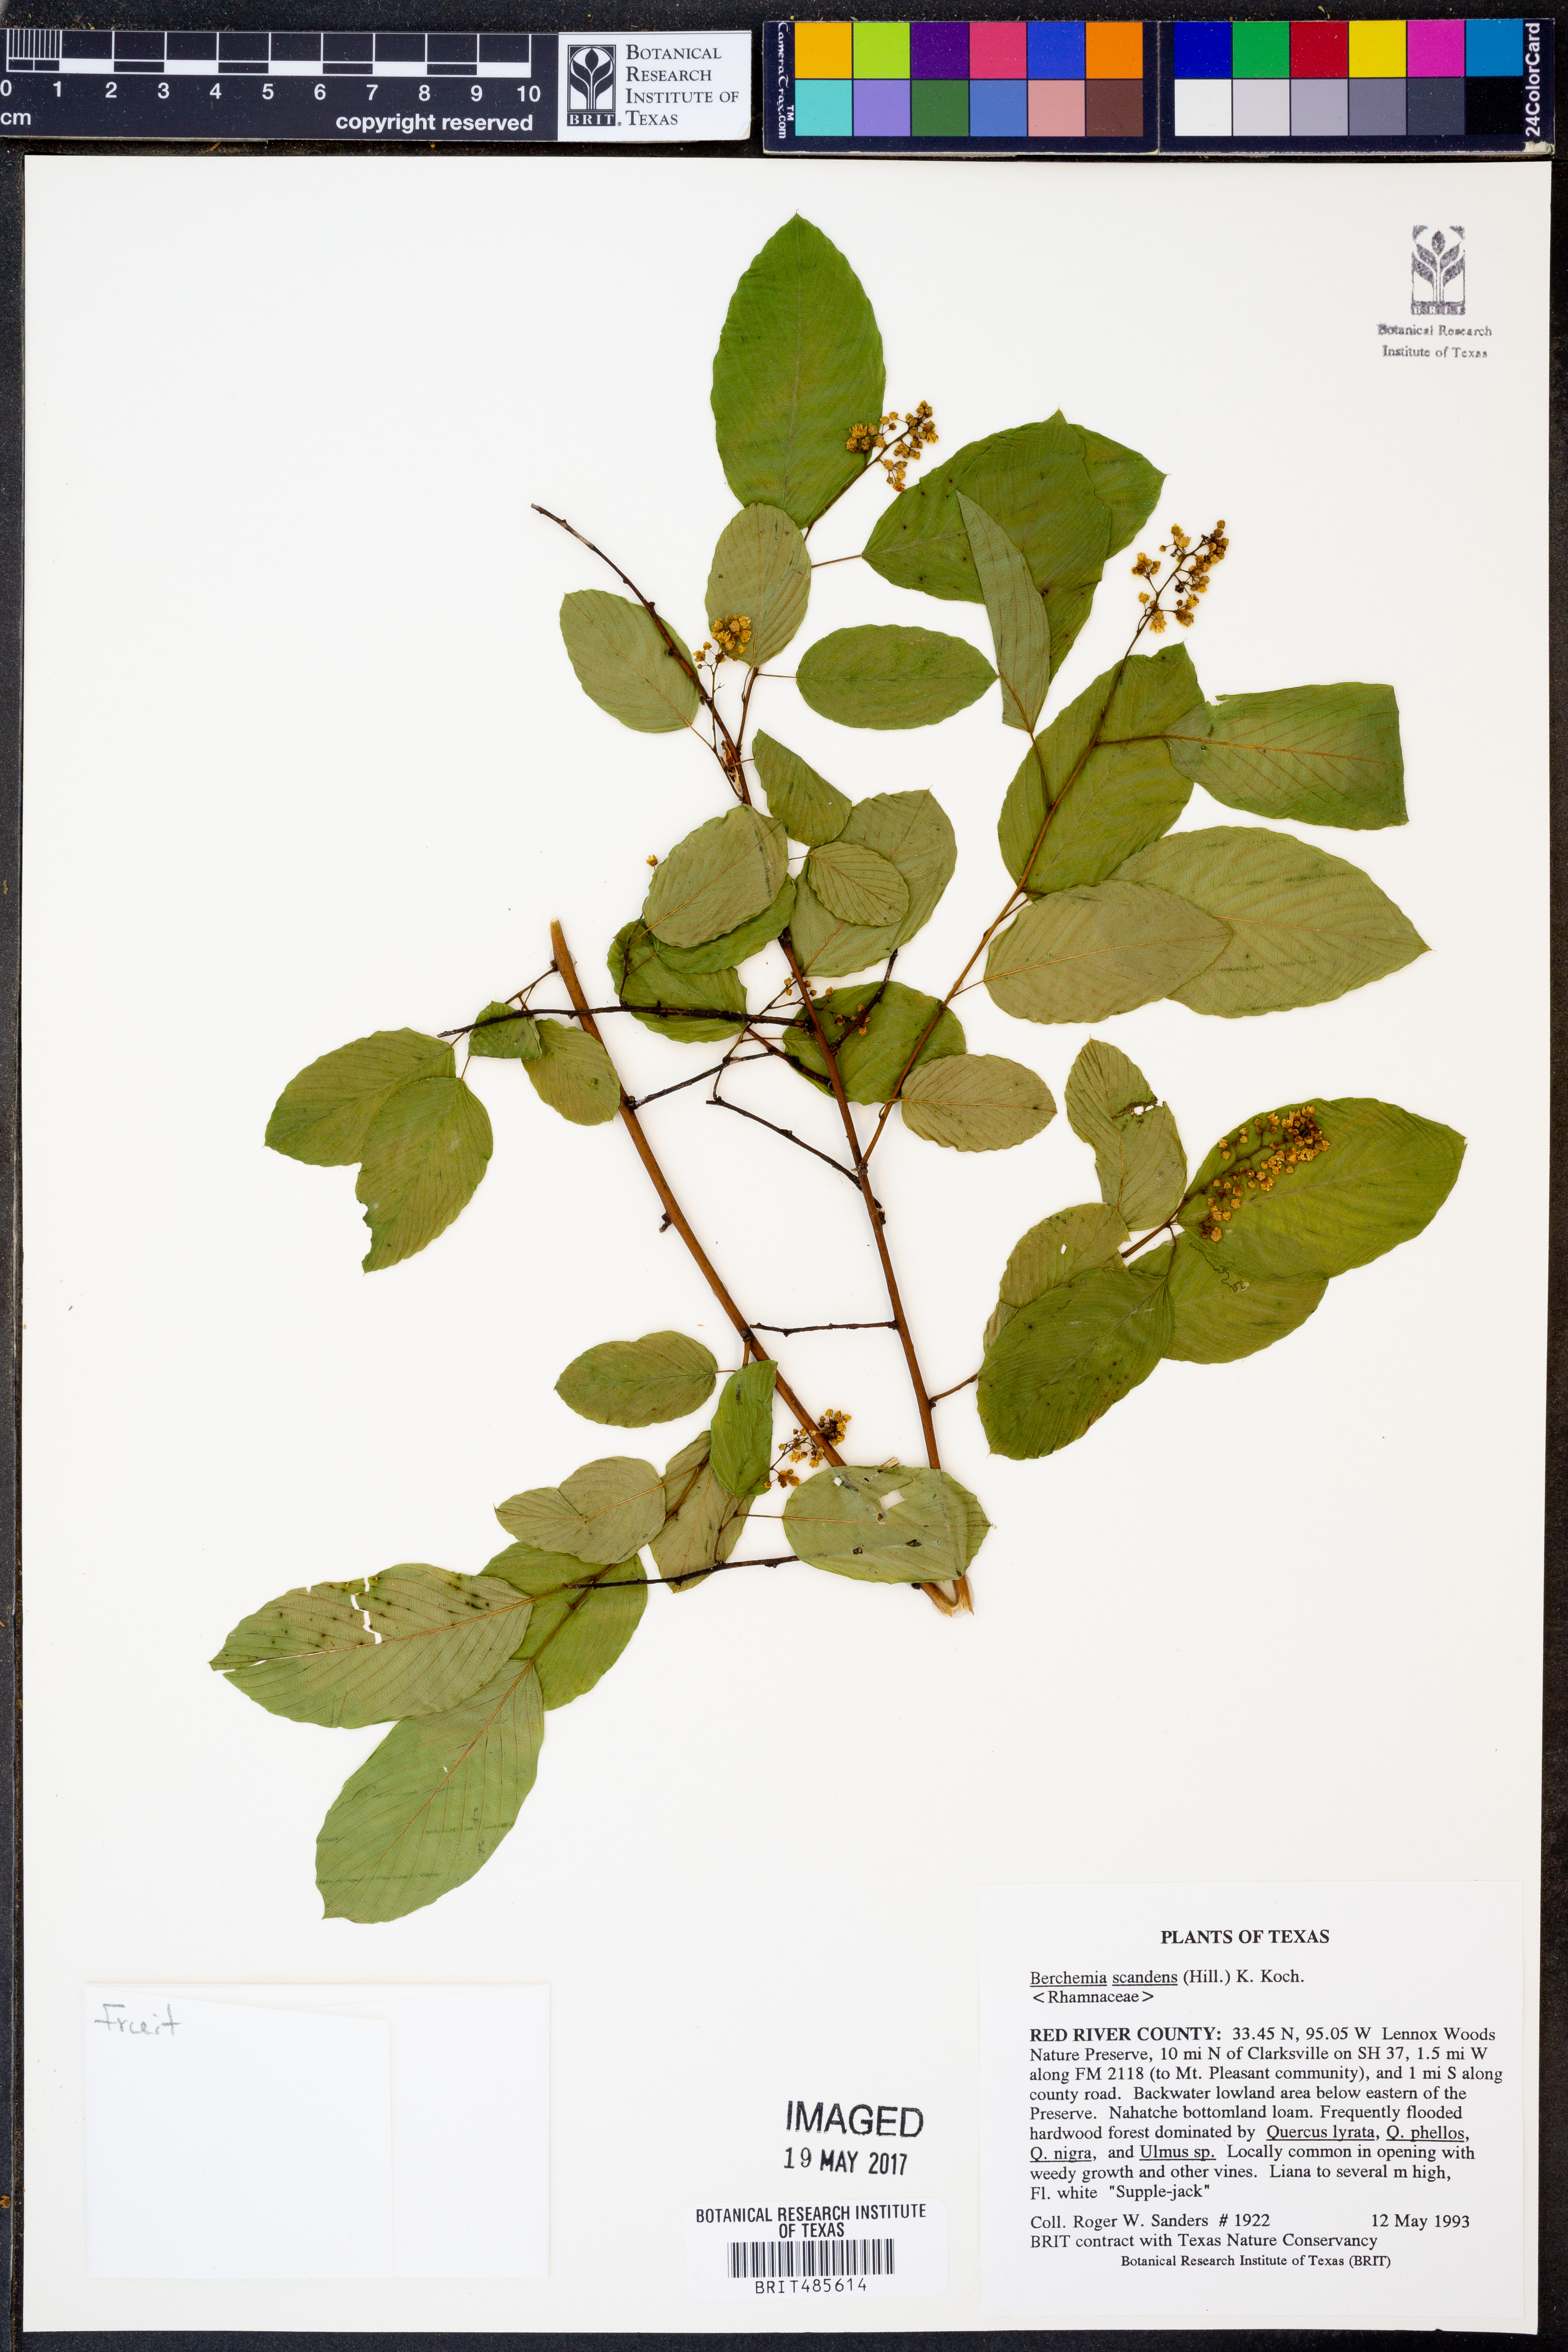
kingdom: Plantae
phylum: Tracheophyta
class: Magnoliopsida
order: Rosales
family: Rhamnaceae
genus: Berchemia
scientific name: Berchemia scandens
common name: Supplejack
